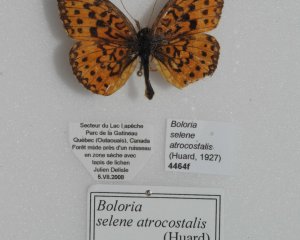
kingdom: Animalia
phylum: Arthropoda
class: Insecta
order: Lepidoptera
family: Nymphalidae
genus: Boloria
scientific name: Boloria selene
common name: Silver-bordered Fritillary
